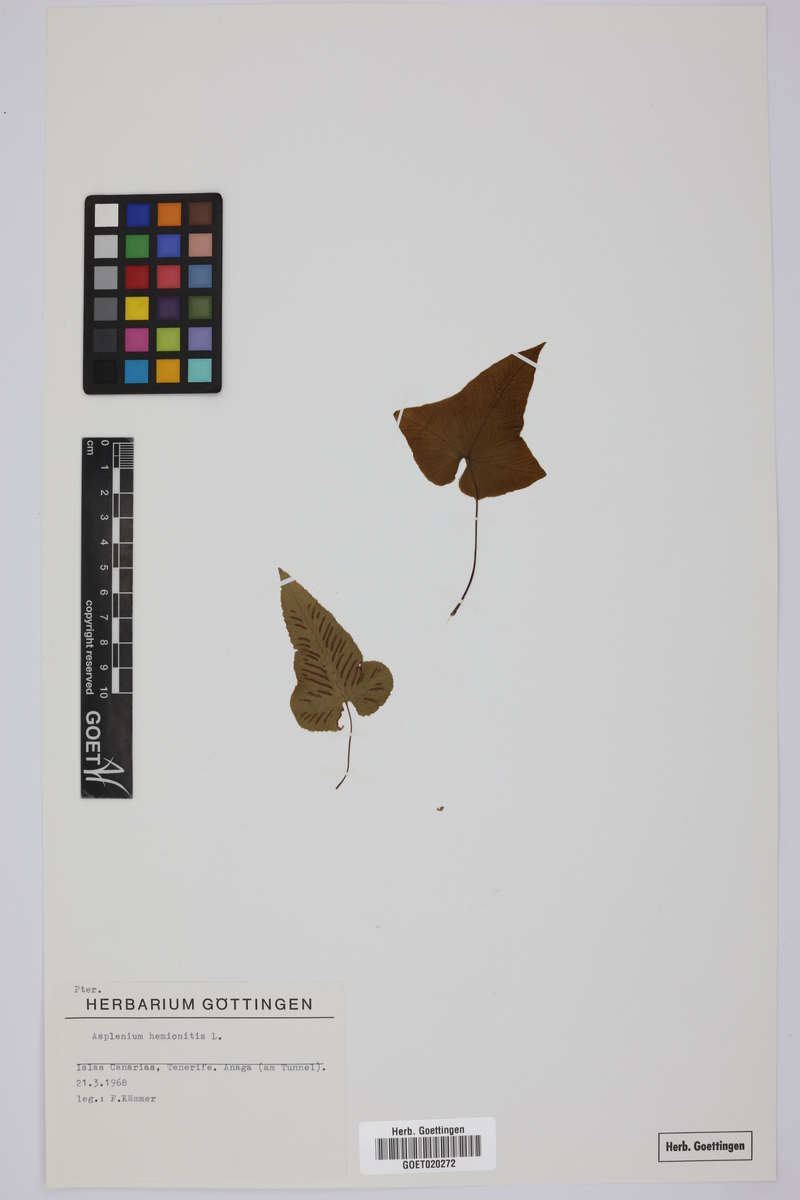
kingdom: Plantae
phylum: Tracheophyta
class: Polypodiopsida
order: Polypodiales
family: Aspleniaceae
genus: Asplenium
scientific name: Asplenium hemionitis
